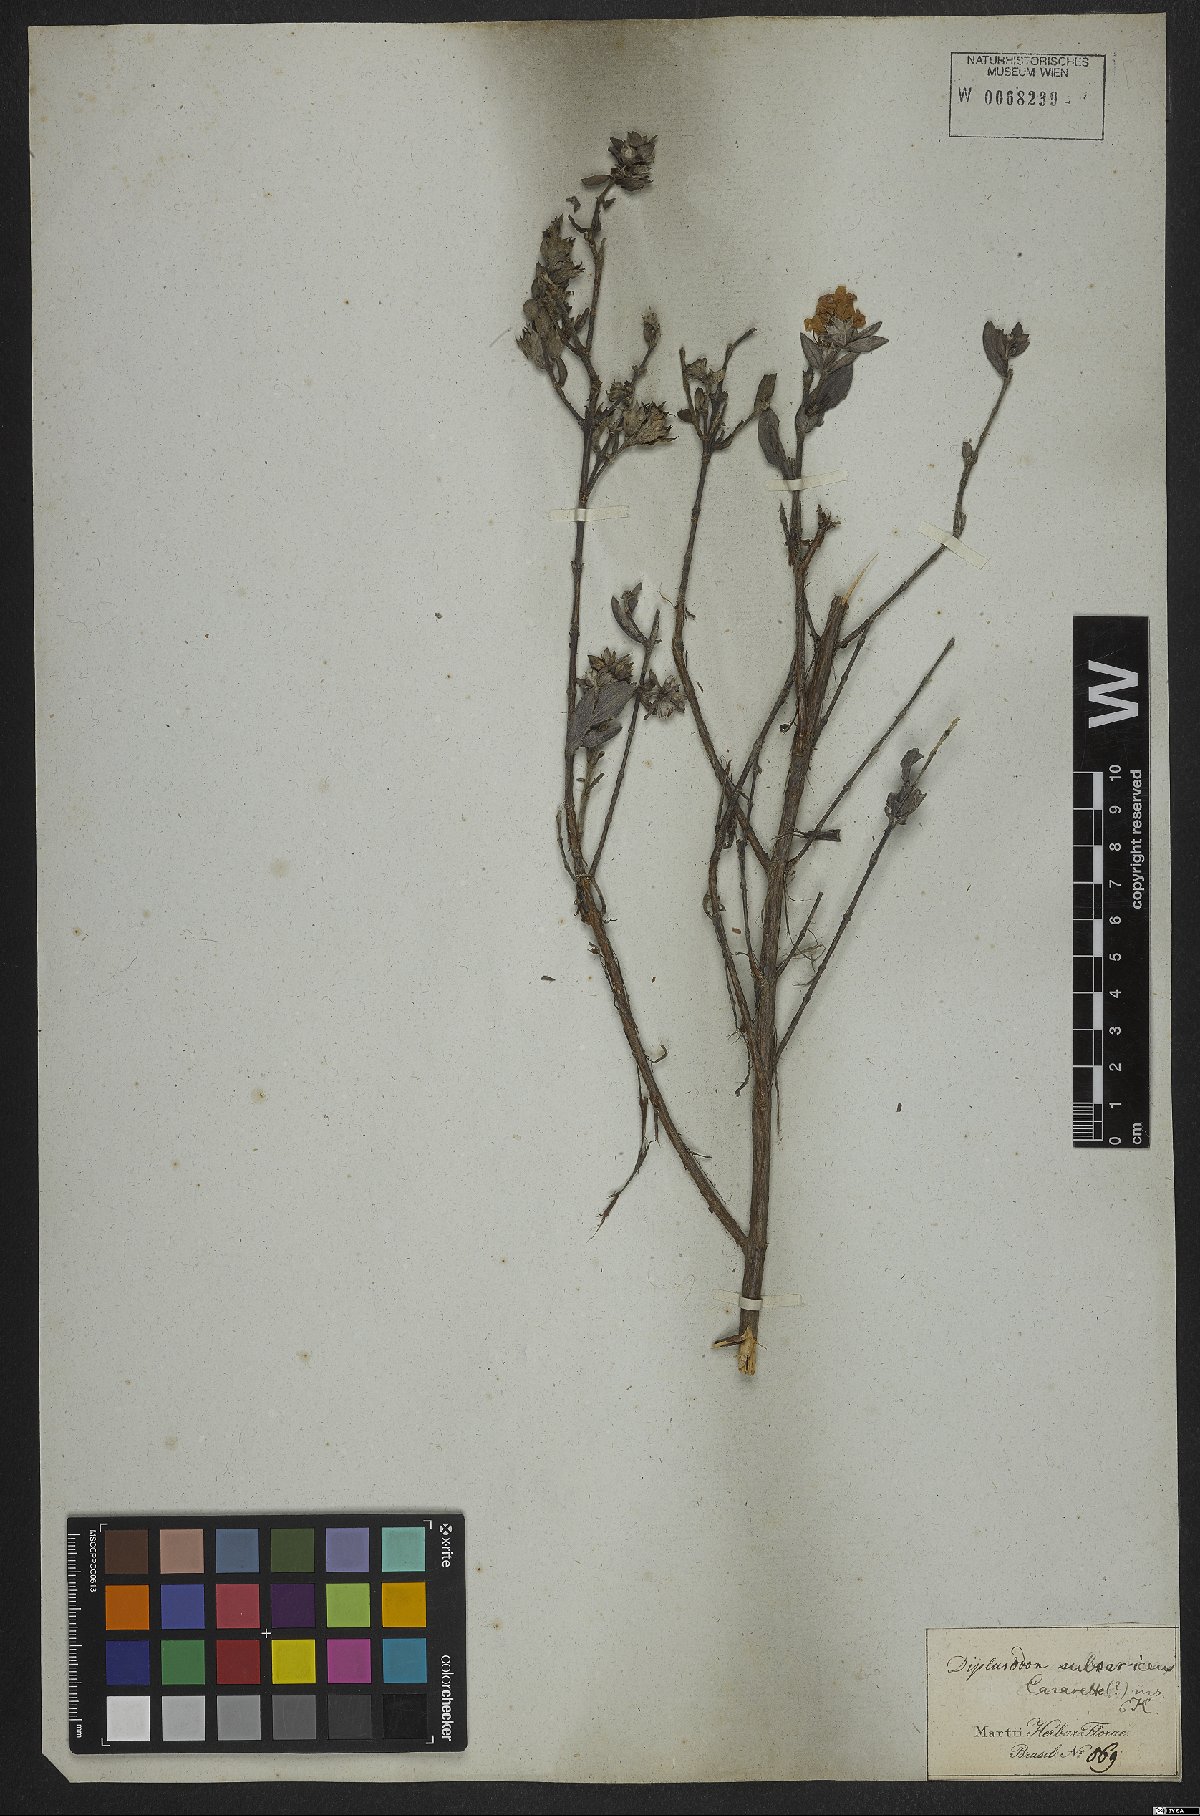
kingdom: Plantae
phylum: Tracheophyta
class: Magnoliopsida
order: Myrtales
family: Lythraceae
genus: Diplusodon
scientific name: Diplusodon subsericeus
